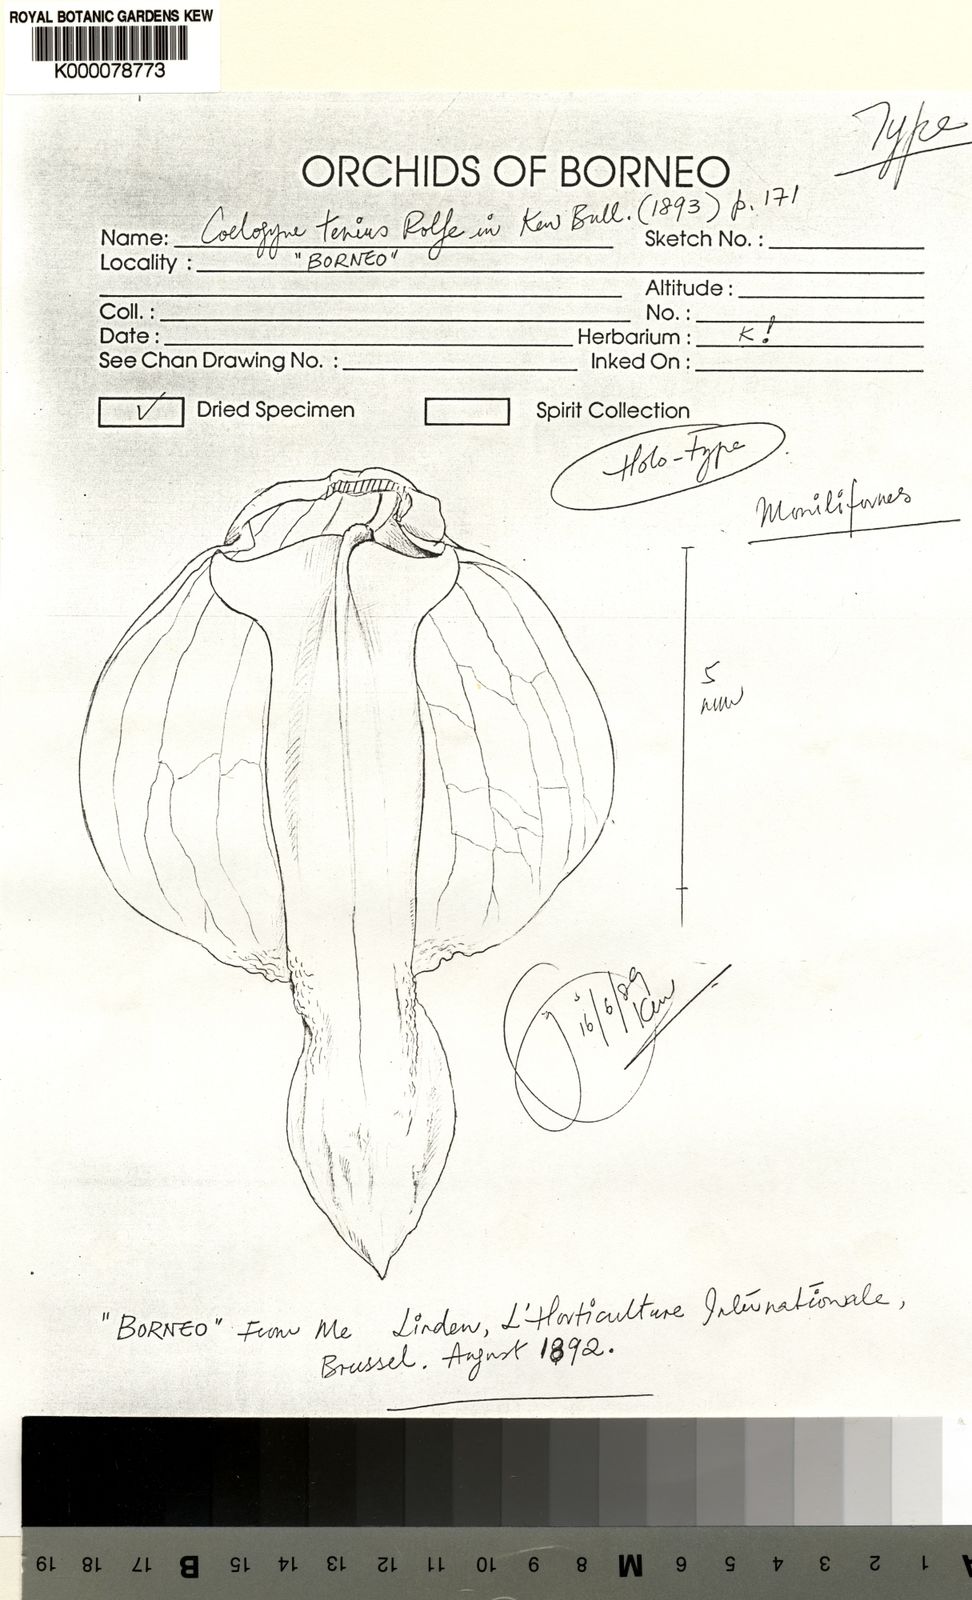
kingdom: Plantae
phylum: Tracheophyta
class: Liliopsida
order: Asparagales
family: Orchidaceae
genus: Coelogyne
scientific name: Coelogyne tenuis
